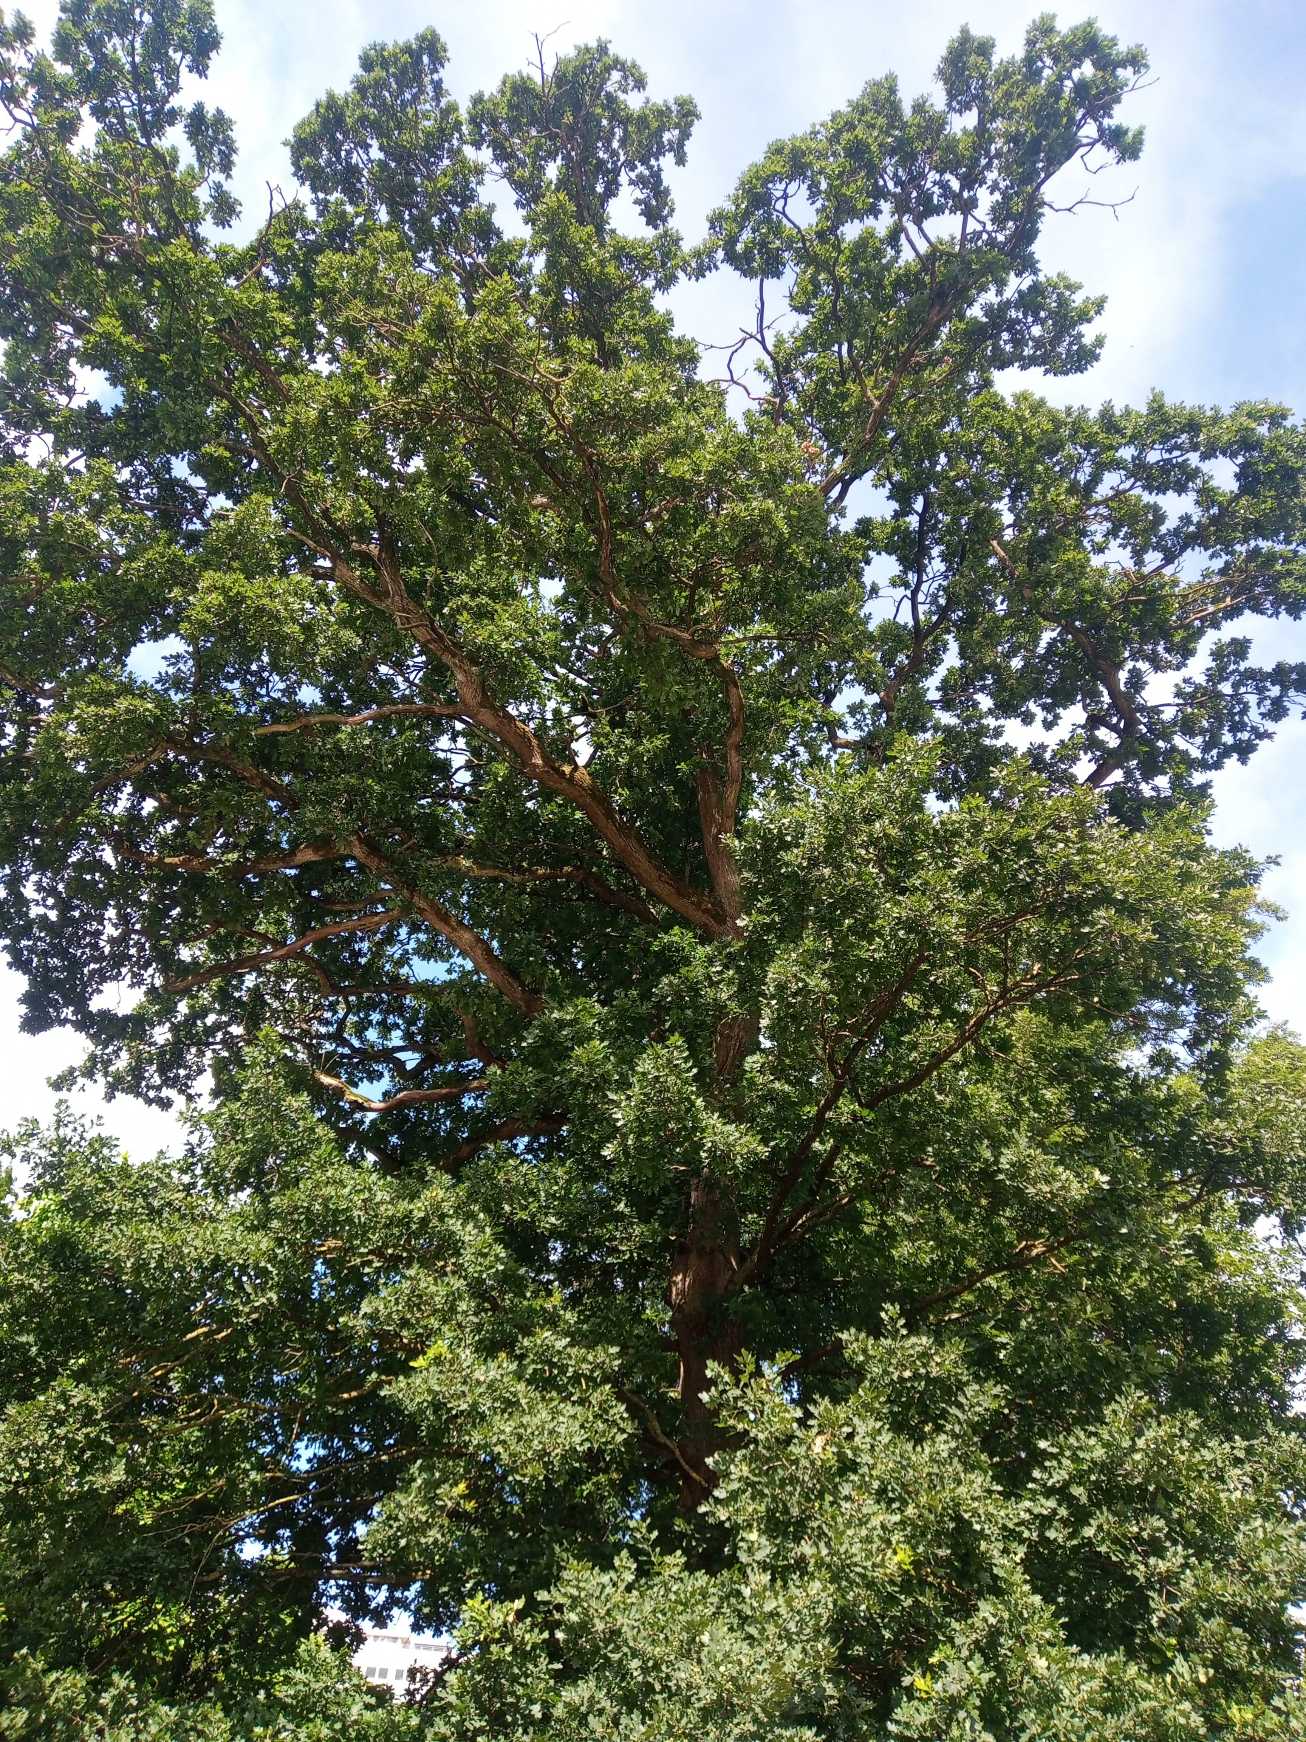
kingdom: Plantae
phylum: Tracheophyta
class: Magnoliopsida
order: Fagales
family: Fagaceae
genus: Quercus
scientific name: Quercus robur
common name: Stilk-eg/almindelig eg
